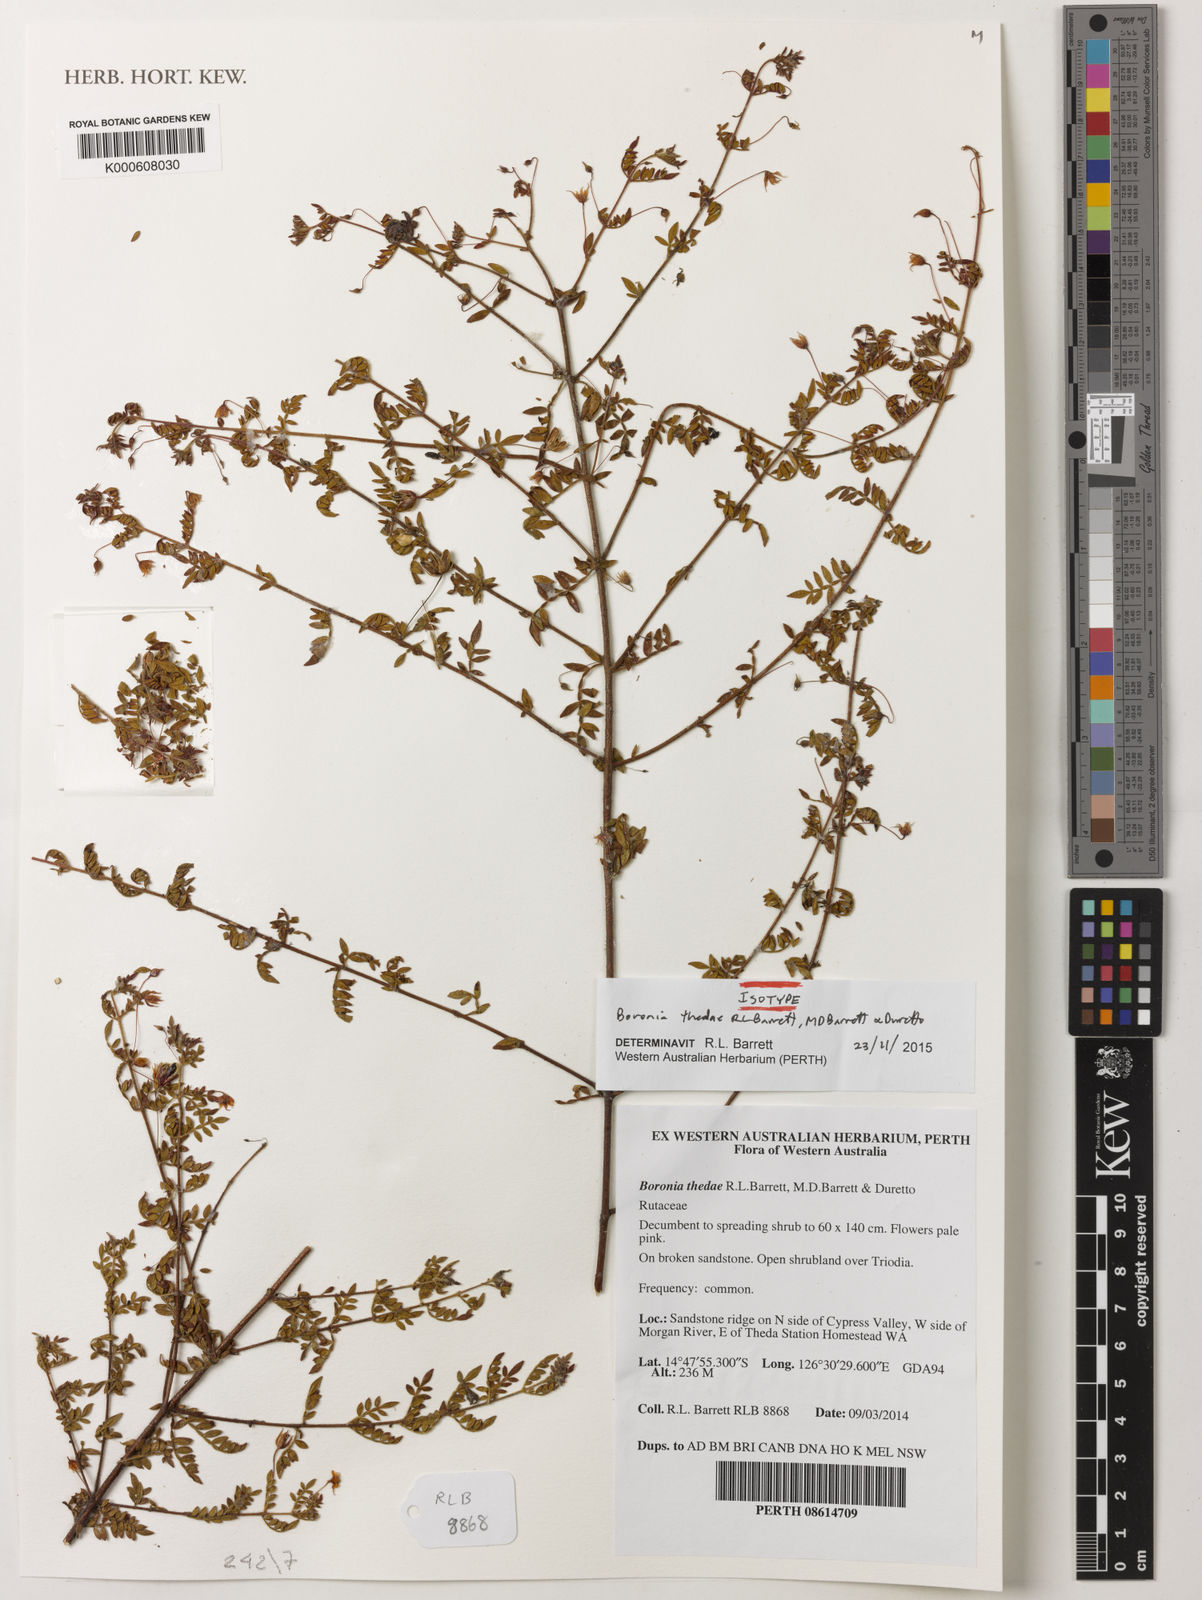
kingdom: Plantae
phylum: Tracheophyta
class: Magnoliopsida
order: Sapindales
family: Rutaceae
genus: Boronia
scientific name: Boronia thedae
